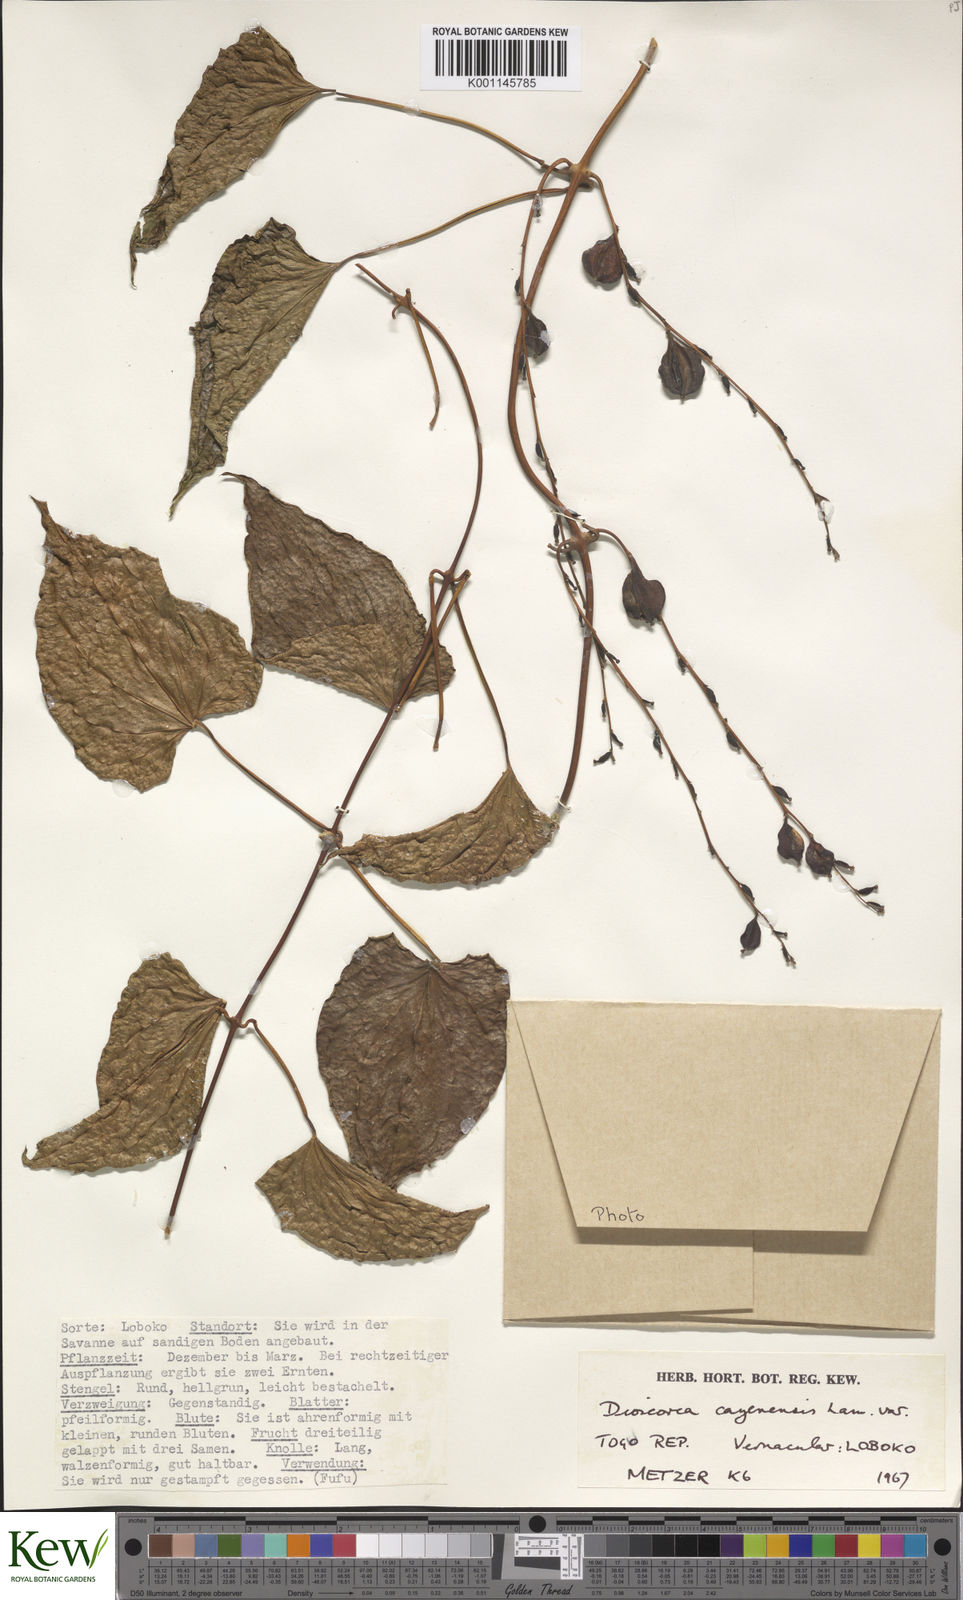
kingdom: Plantae
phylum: Tracheophyta
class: Liliopsida
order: Dioscoreales
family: Dioscoreaceae
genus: Dioscorea
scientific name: Dioscorea cayenensis
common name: Attoto yam
